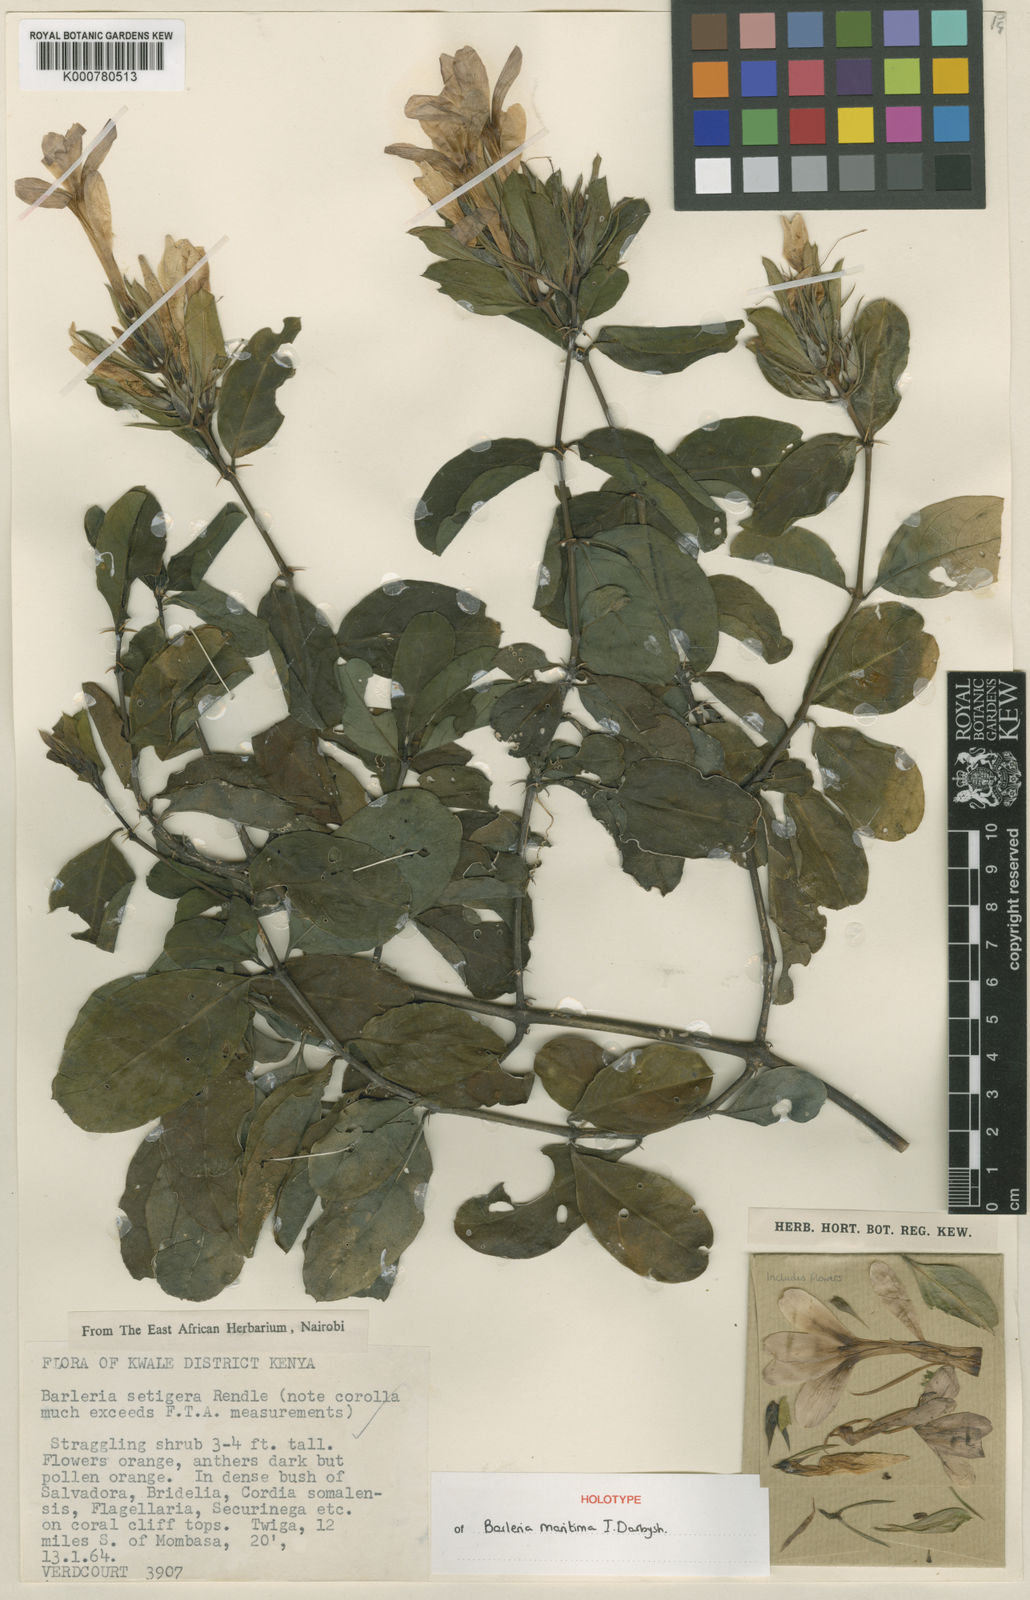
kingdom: Plantae
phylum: Tracheophyta
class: Magnoliopsida
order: Lamiales
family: Acanthaceae
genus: Barleria
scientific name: Barleria maritima
